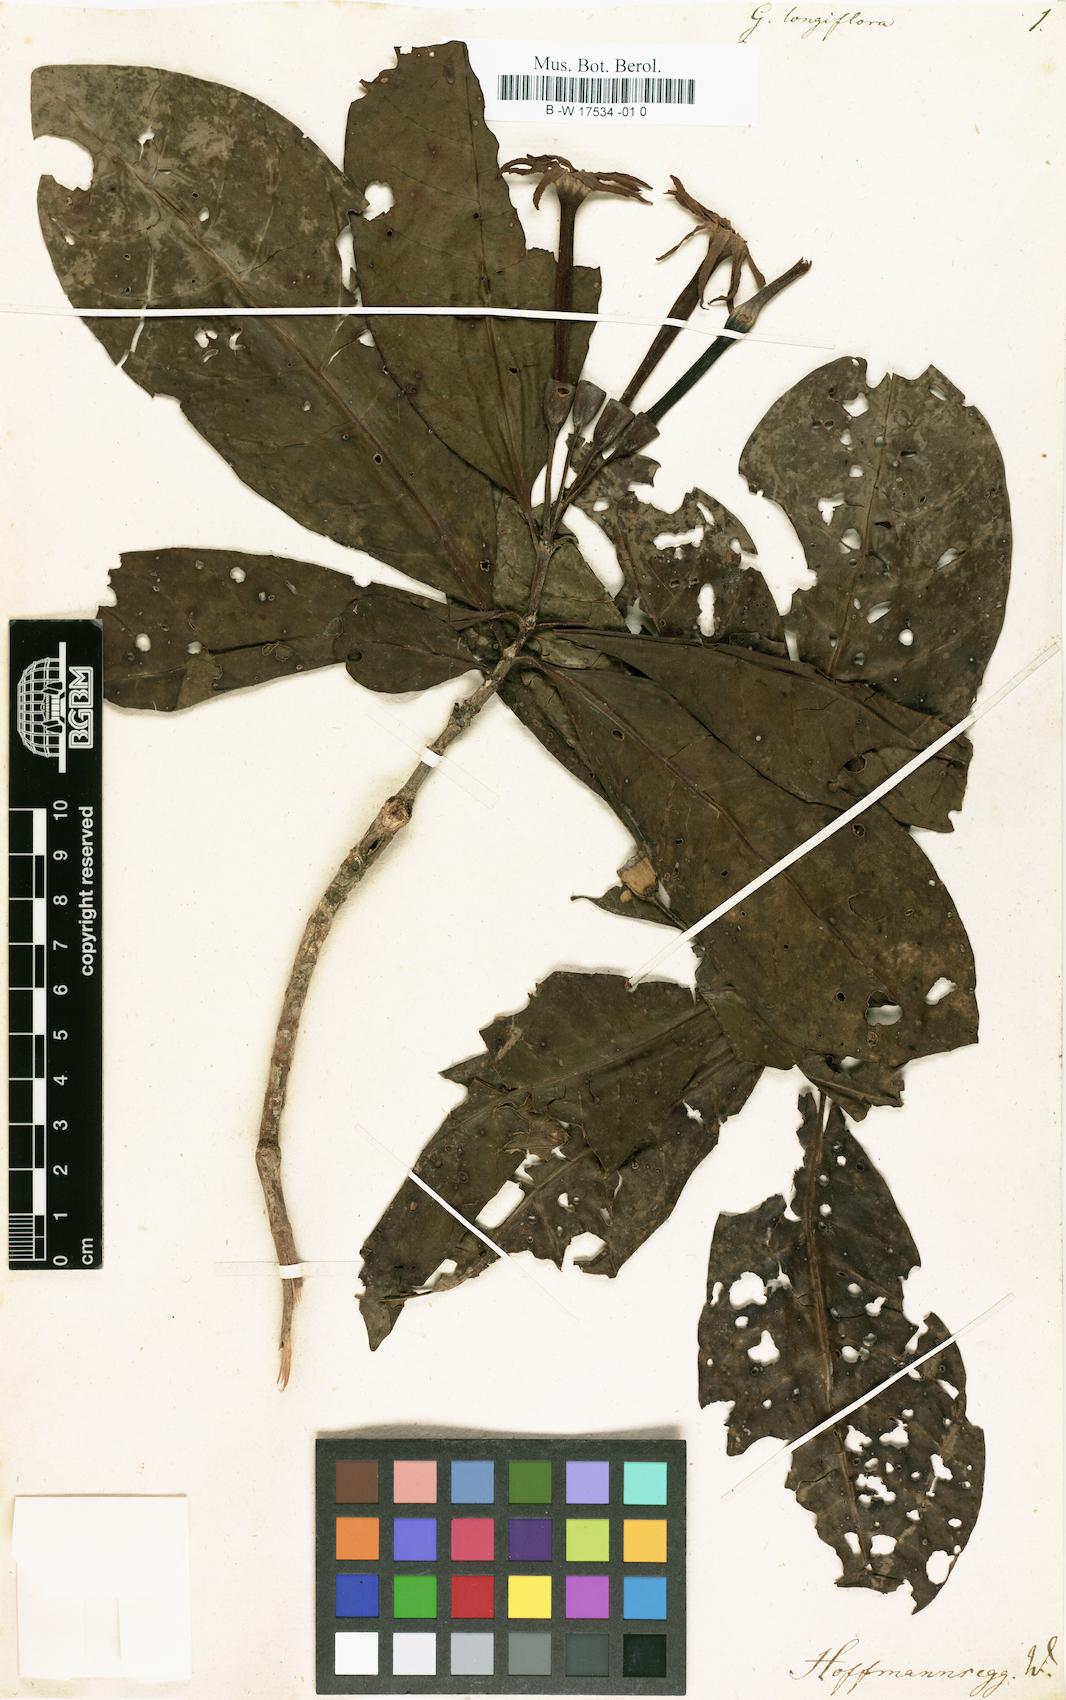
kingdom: Plantae
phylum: Tracheophyta
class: Magnoliopsida
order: Gentianales
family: Rubiaceae
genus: Guettarda
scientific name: Guettarda longiflora
